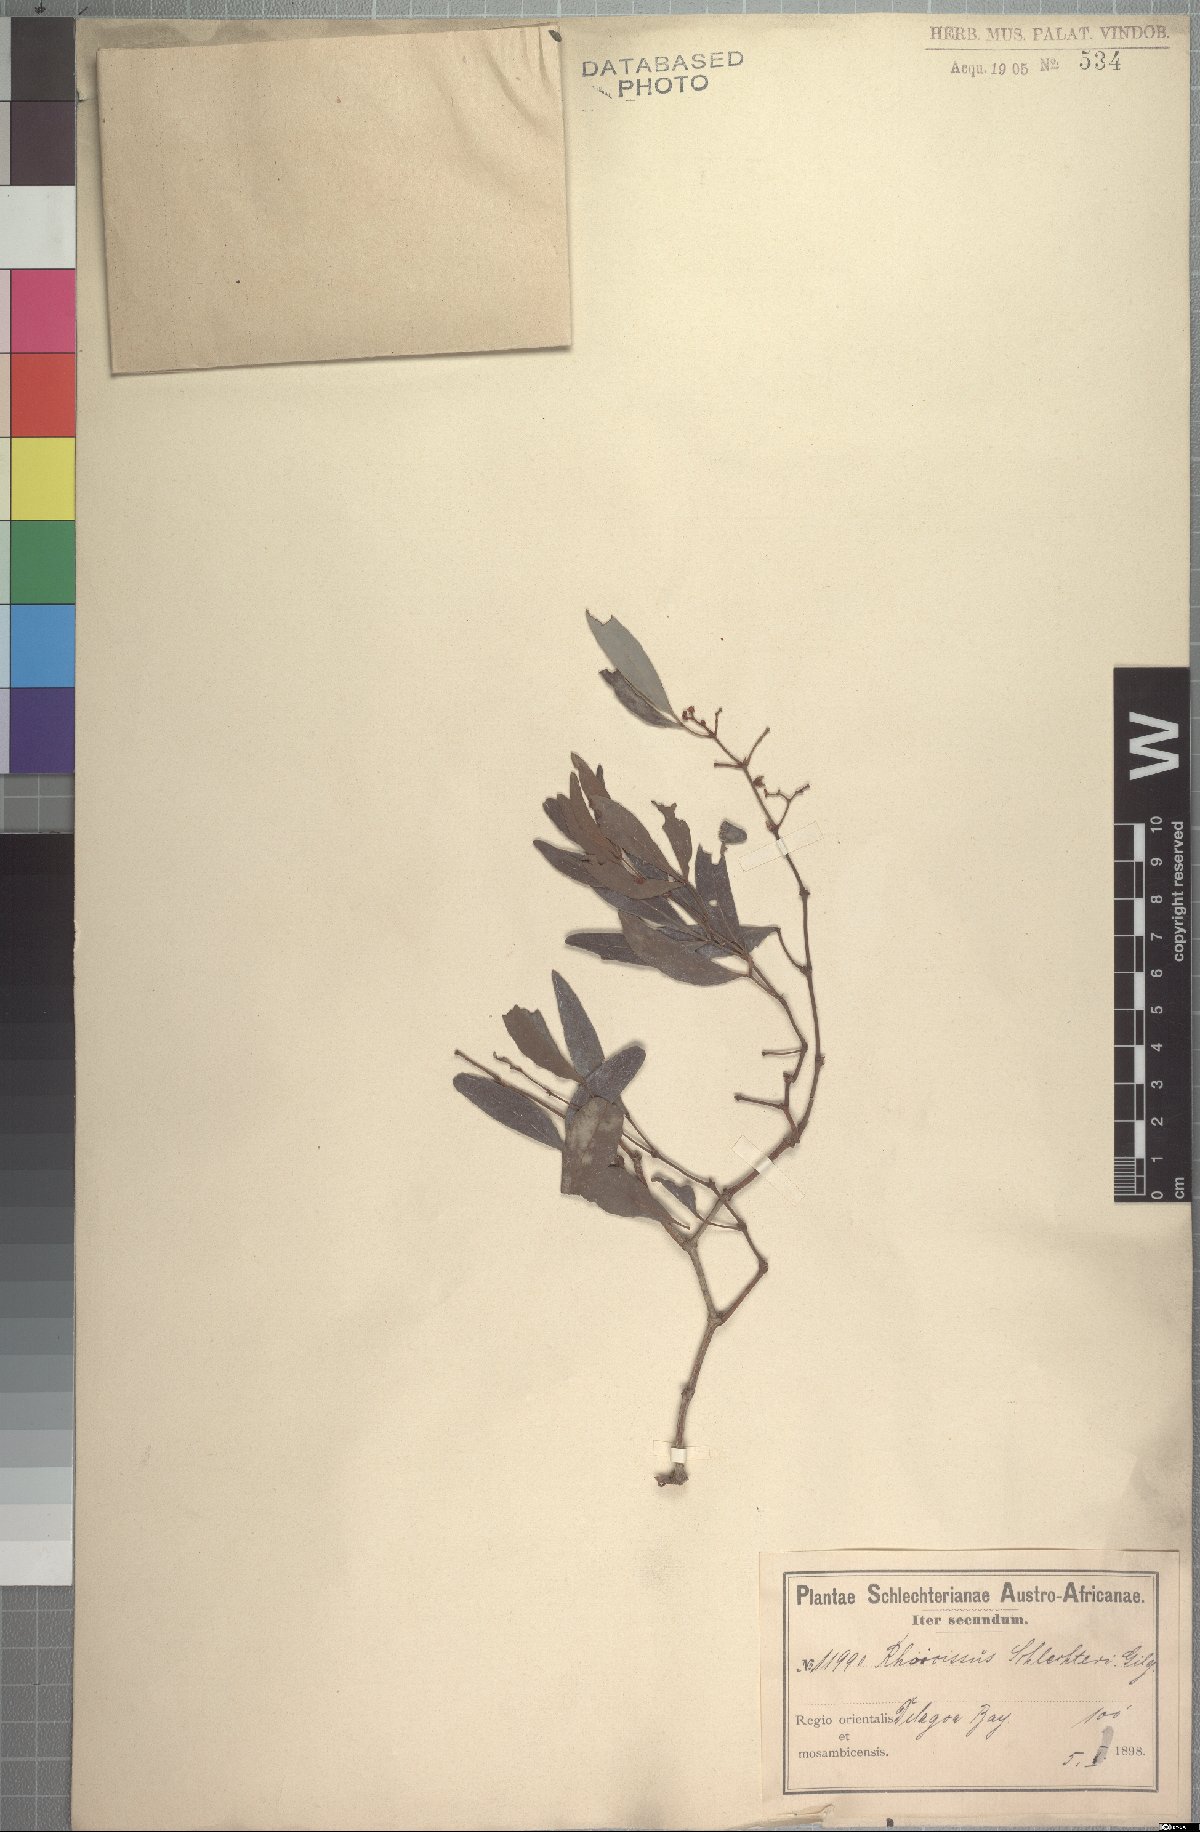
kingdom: Plantae
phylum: Tracheophyta
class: Magnoliopsida
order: Vitales
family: Vitaceae
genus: Rhoicissus
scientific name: Rhoicissus revoilii
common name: Bushveld grape
